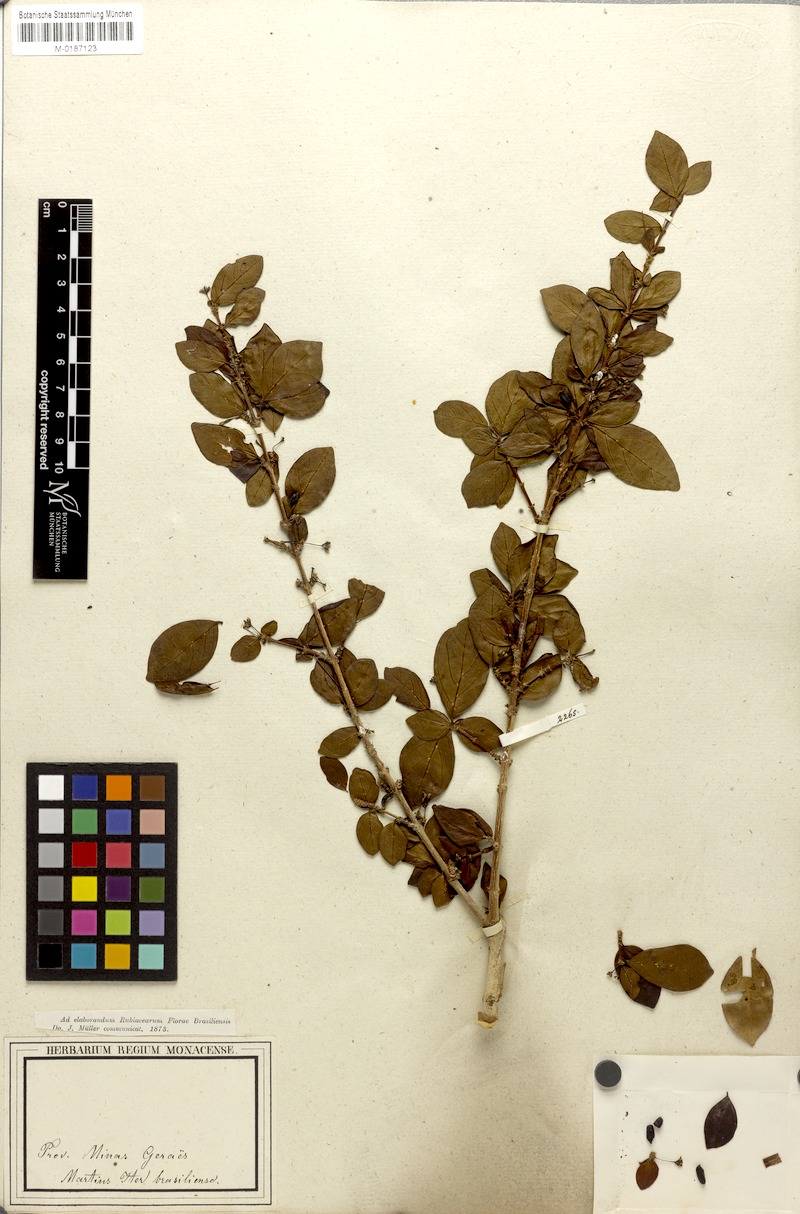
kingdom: Plantae
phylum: Tracheophyta
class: Magnoliopsida
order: Gentianales
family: Rubiaceae
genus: Chomelia
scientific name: Chomelia obtusa
